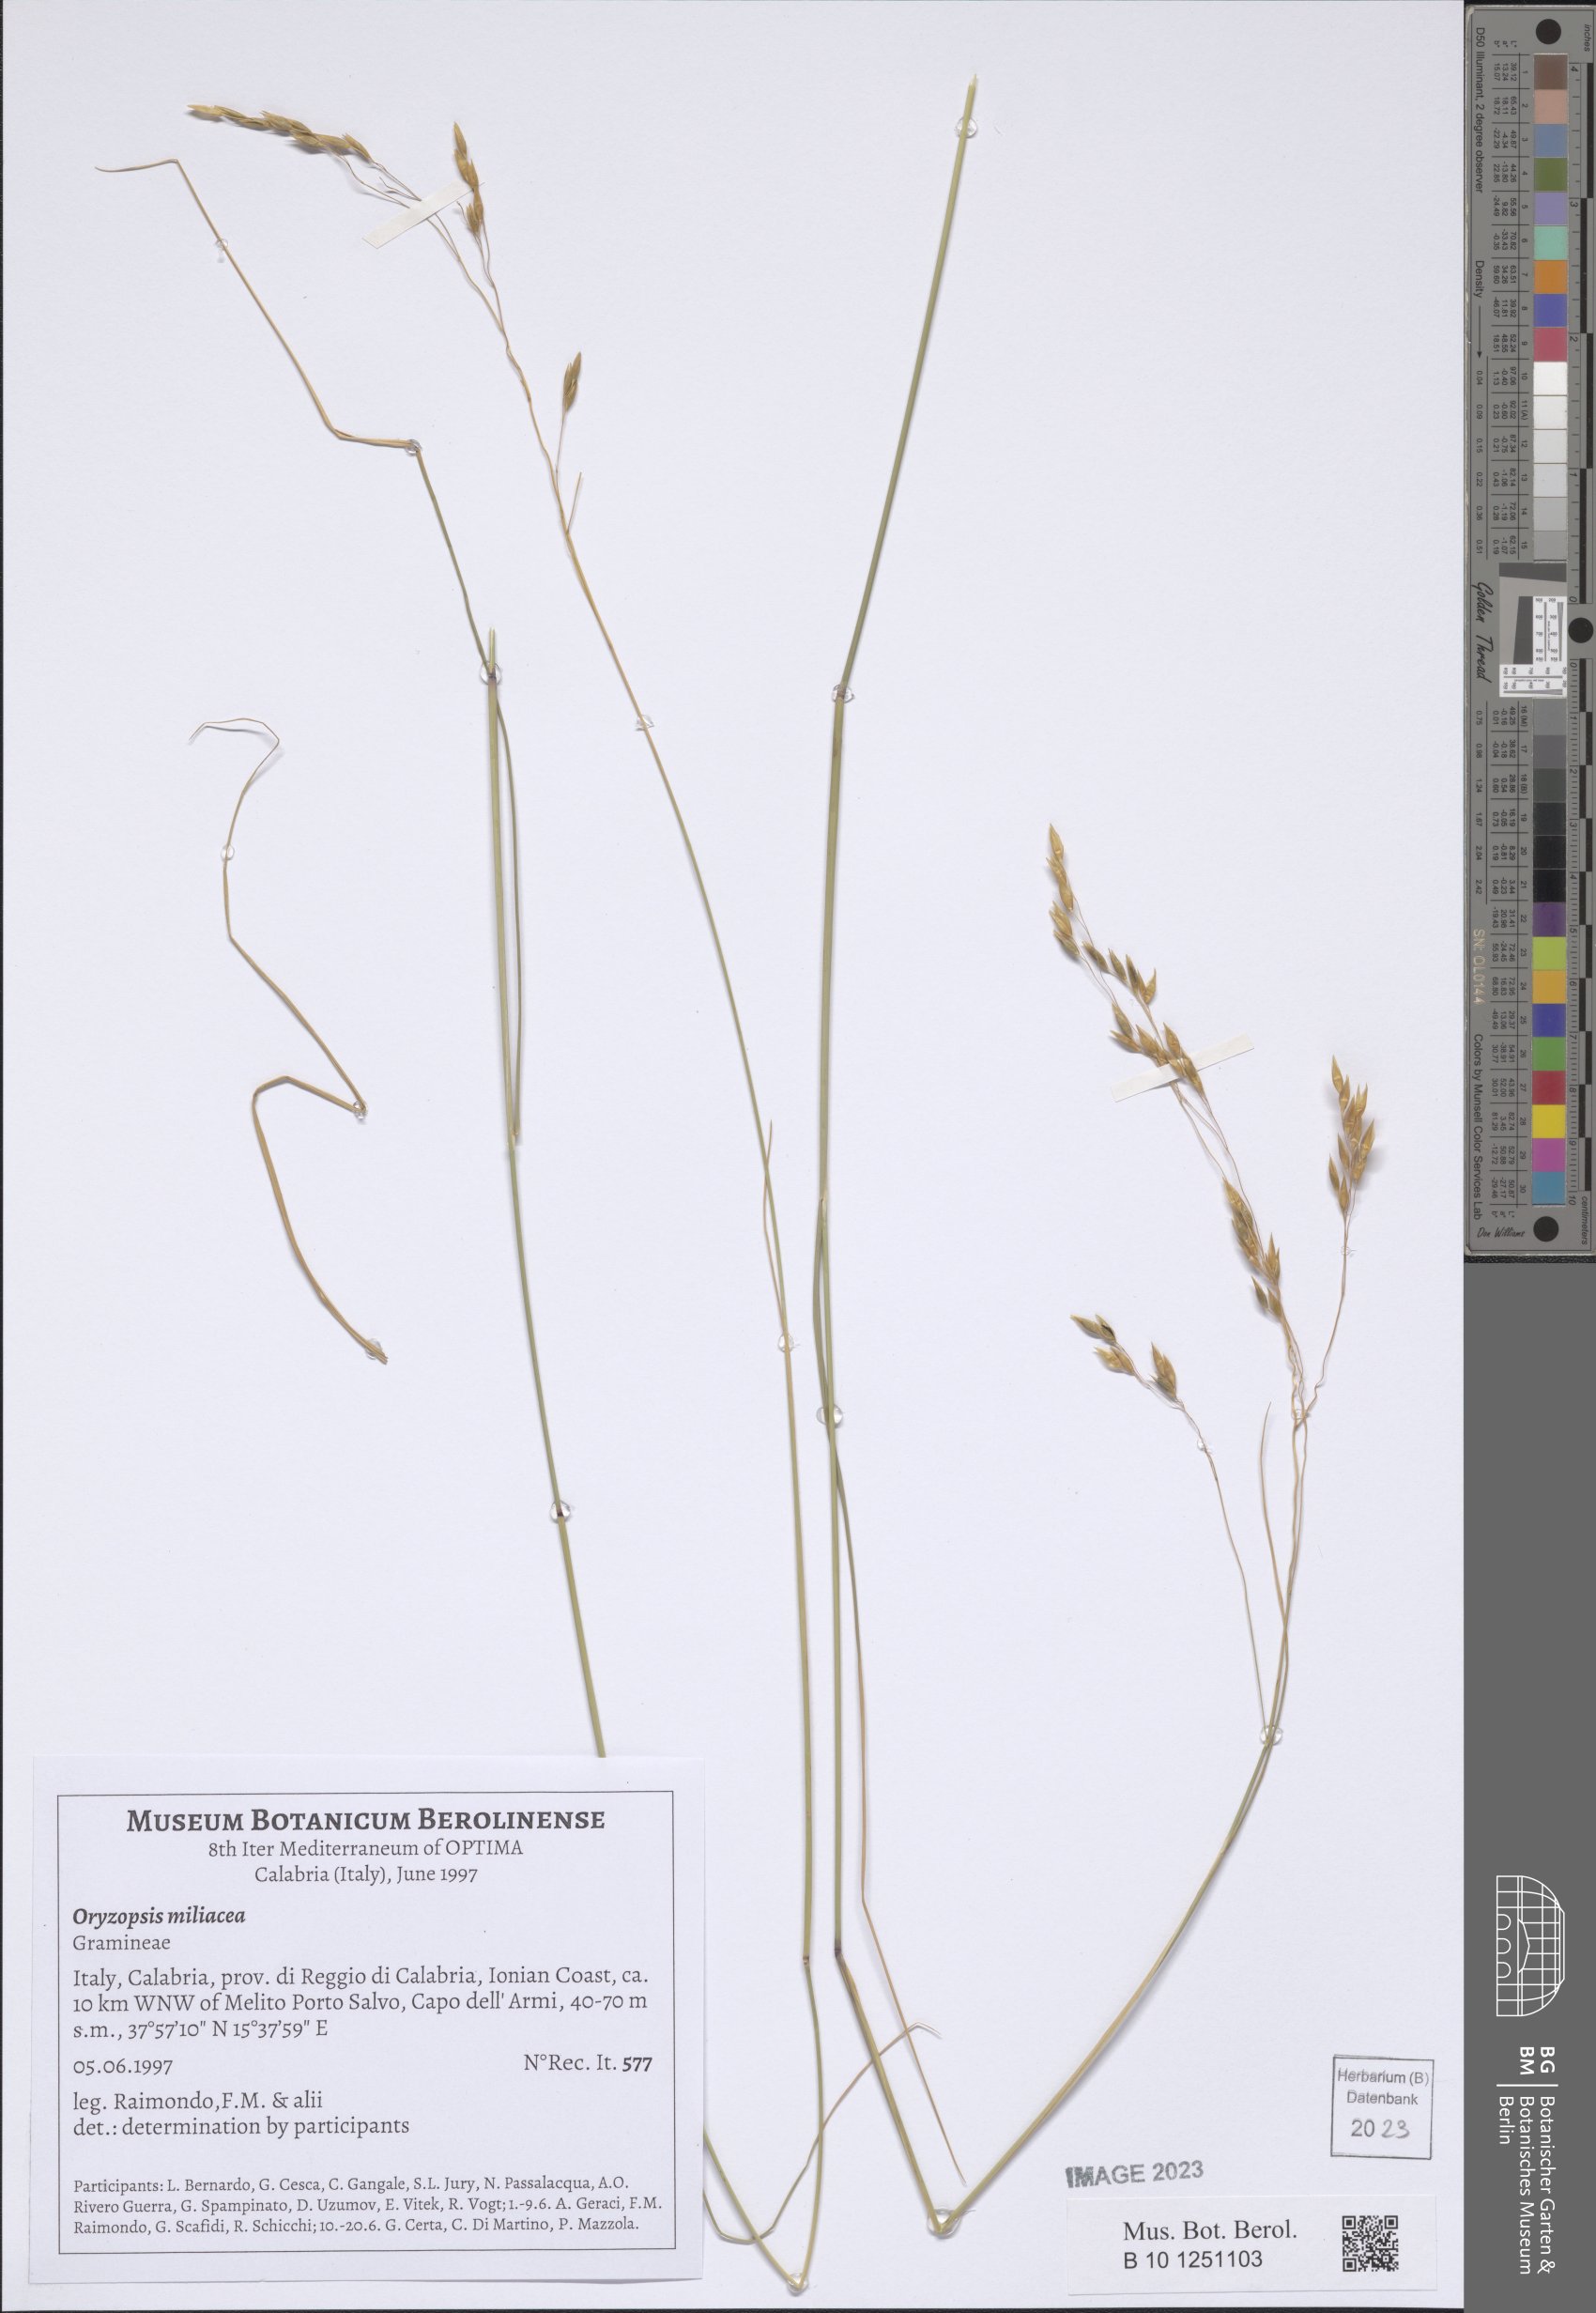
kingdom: Plantae
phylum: Tracheophyta
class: Liliopsida
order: Poales
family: Poaceae
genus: Oloptum
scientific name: Oloptum miliaceum
